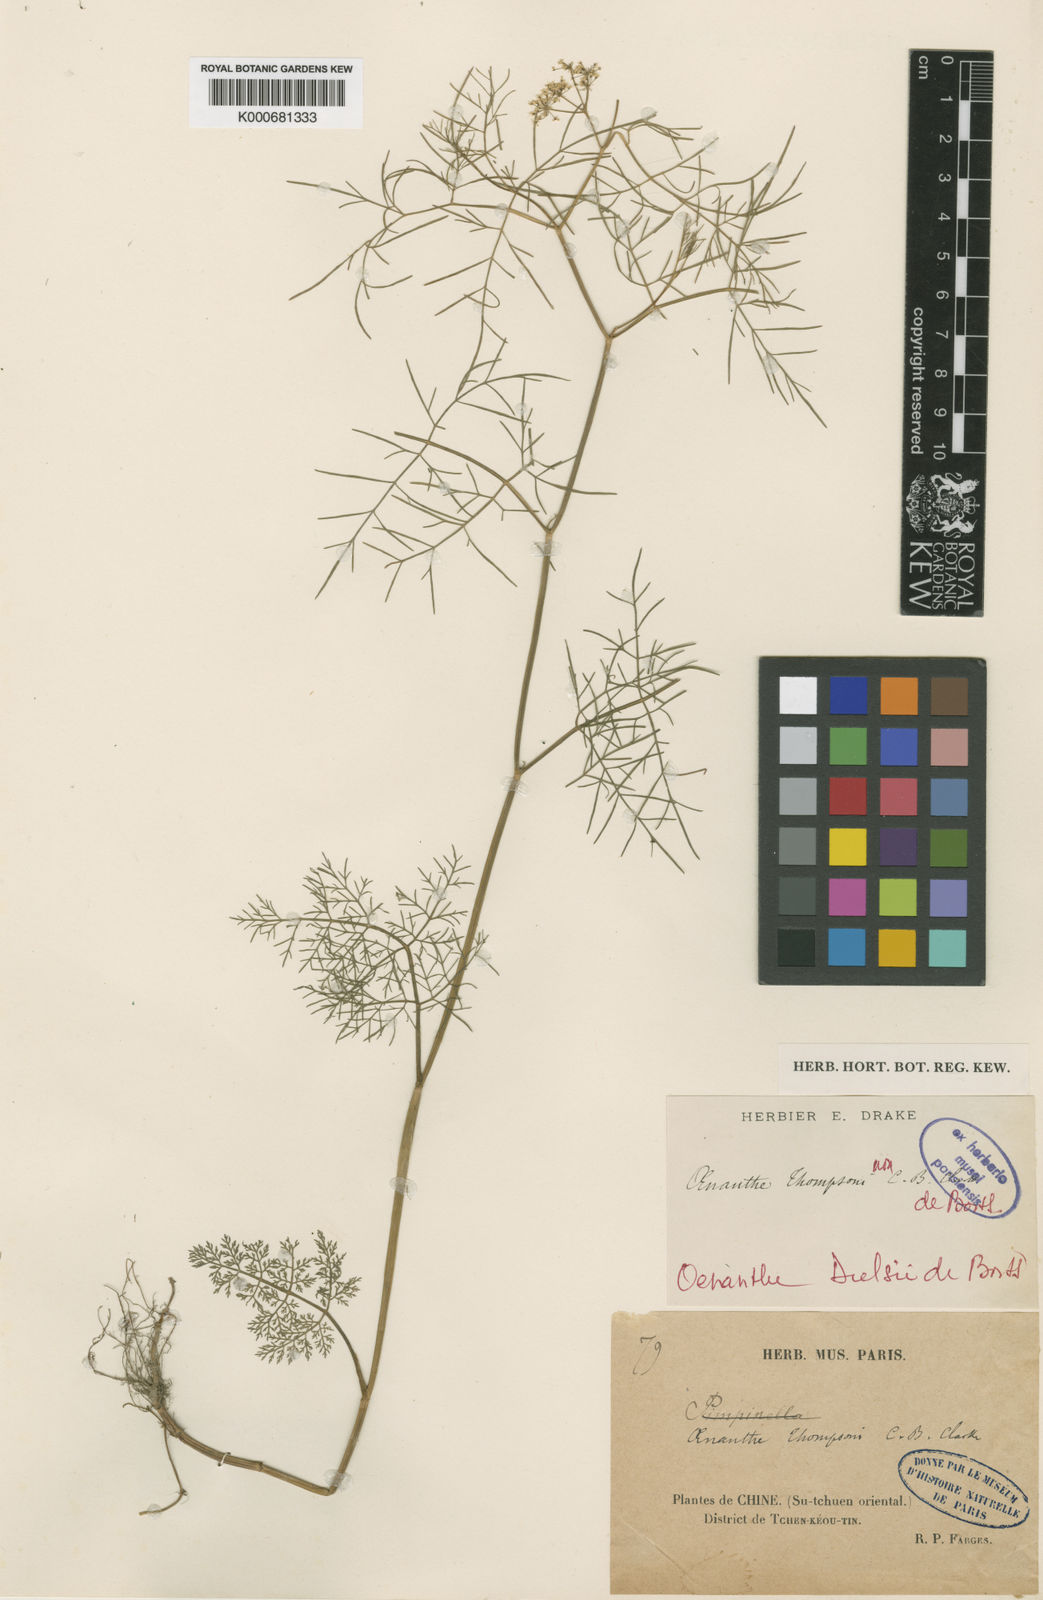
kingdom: Plantae
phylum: Tracheophyta
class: Magnoliopsida
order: Apiales
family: Apiaceae
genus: Oenanthe
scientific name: Oenanthe thomsonii
